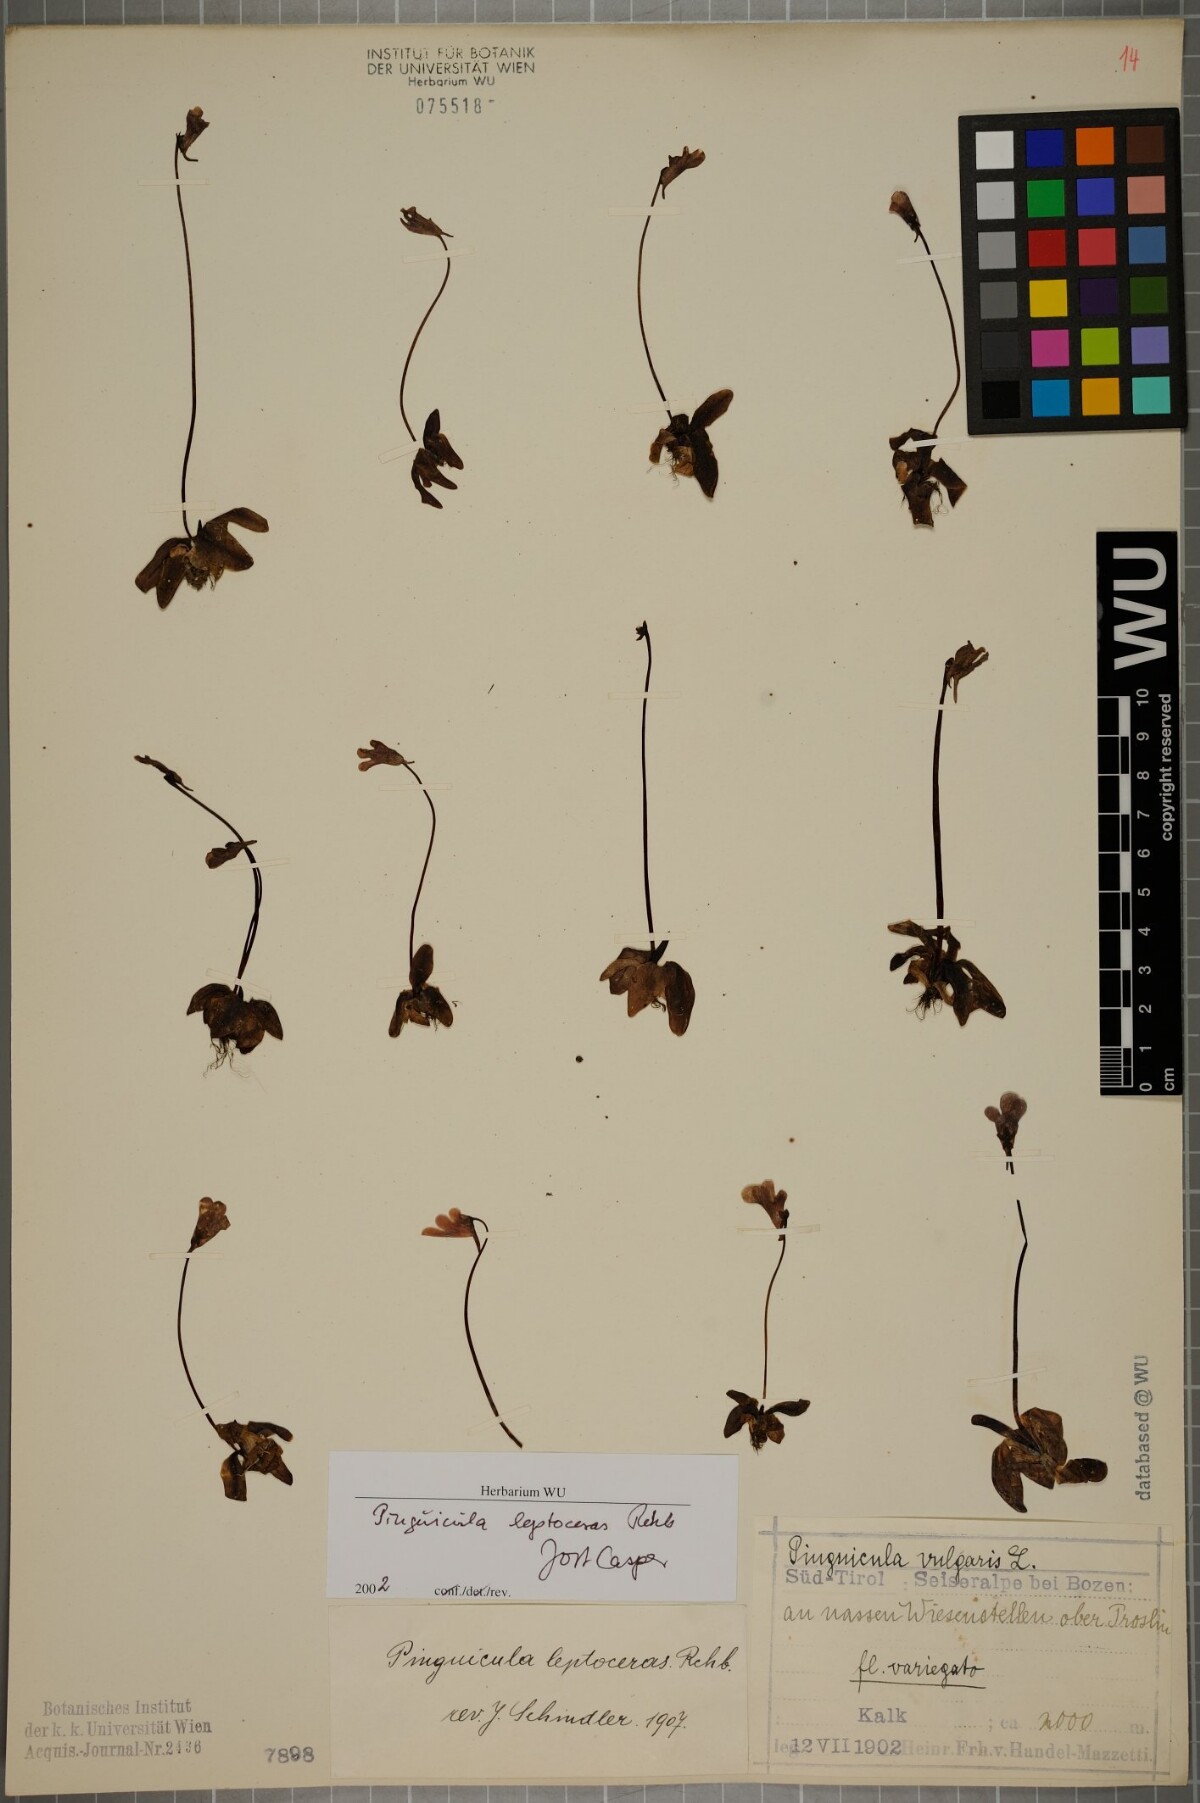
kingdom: Plantae
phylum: Tracheophyta
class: Magnoliopsida
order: Lamiales
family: Lentibulariaceae
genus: Pinguicula
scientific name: Pinguicula leptoceras
